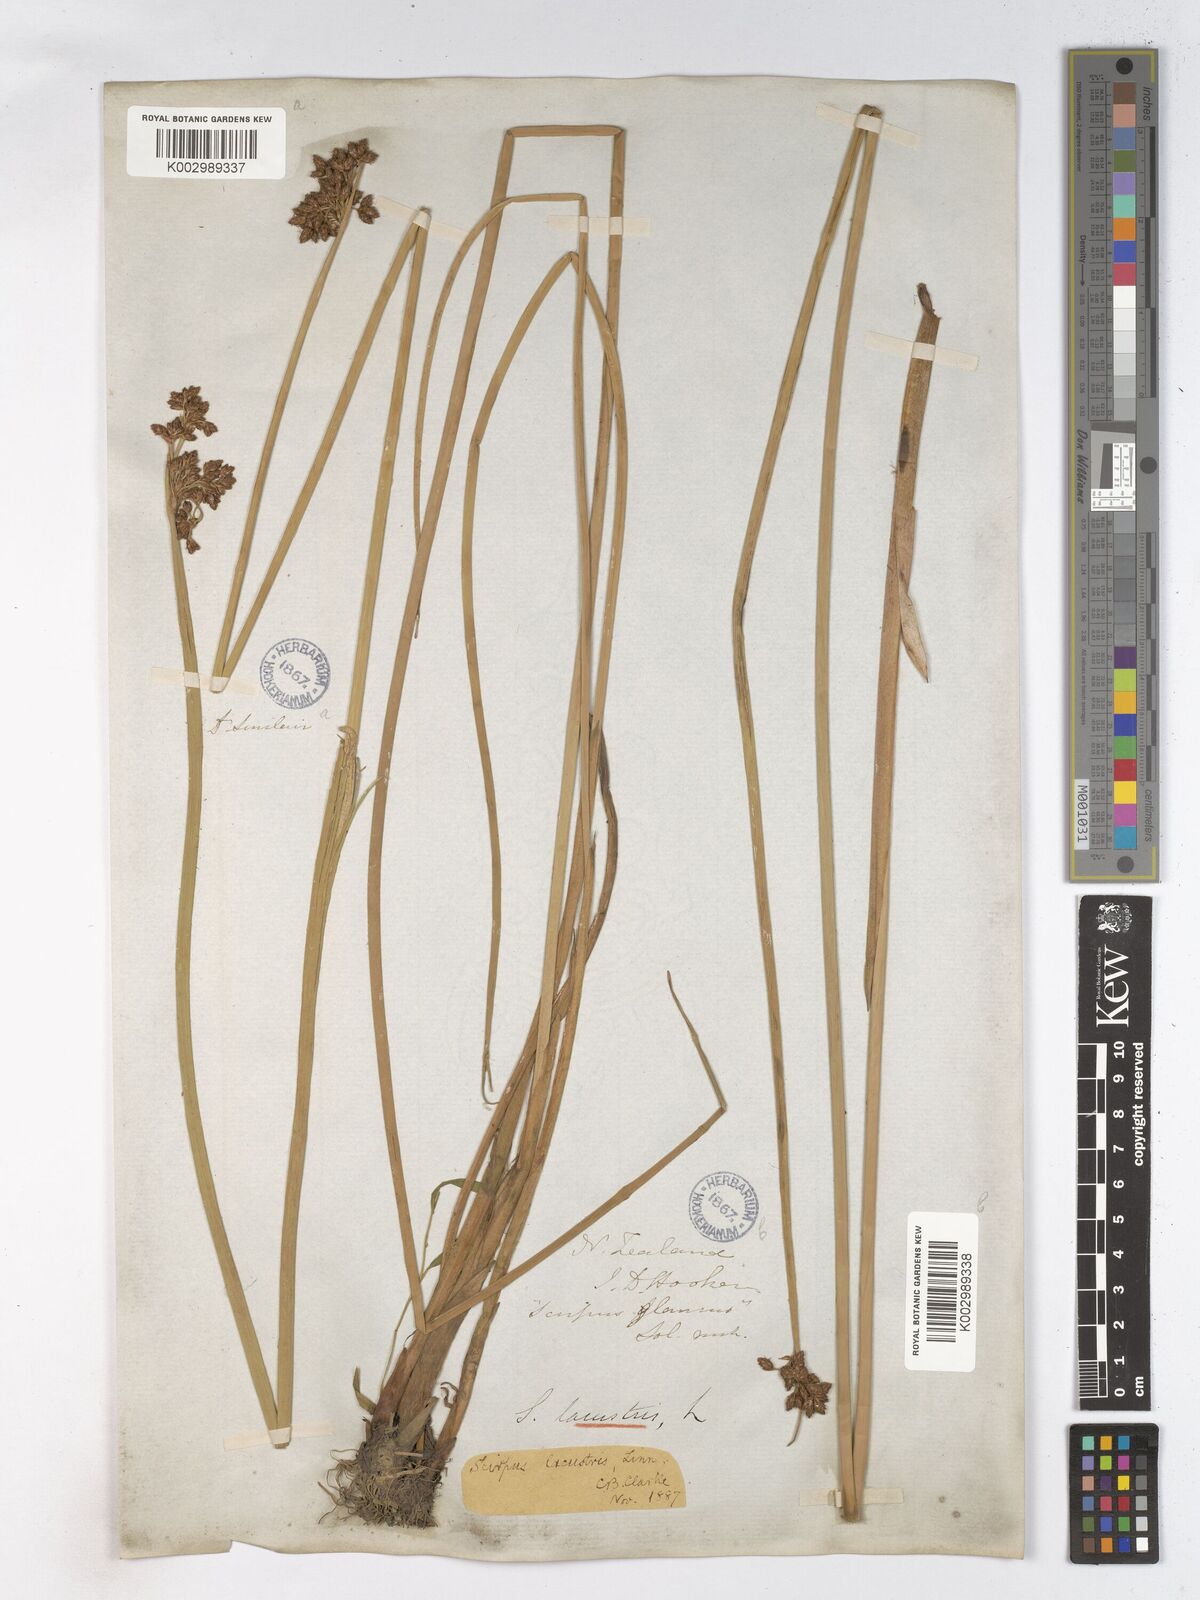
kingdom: Plantae
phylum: Tracheophyta
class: Liliopsida
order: Poales
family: Cyperaceae
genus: Schoenoplectus
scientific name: Schoenoplectus lacustris
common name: Common club-rush
